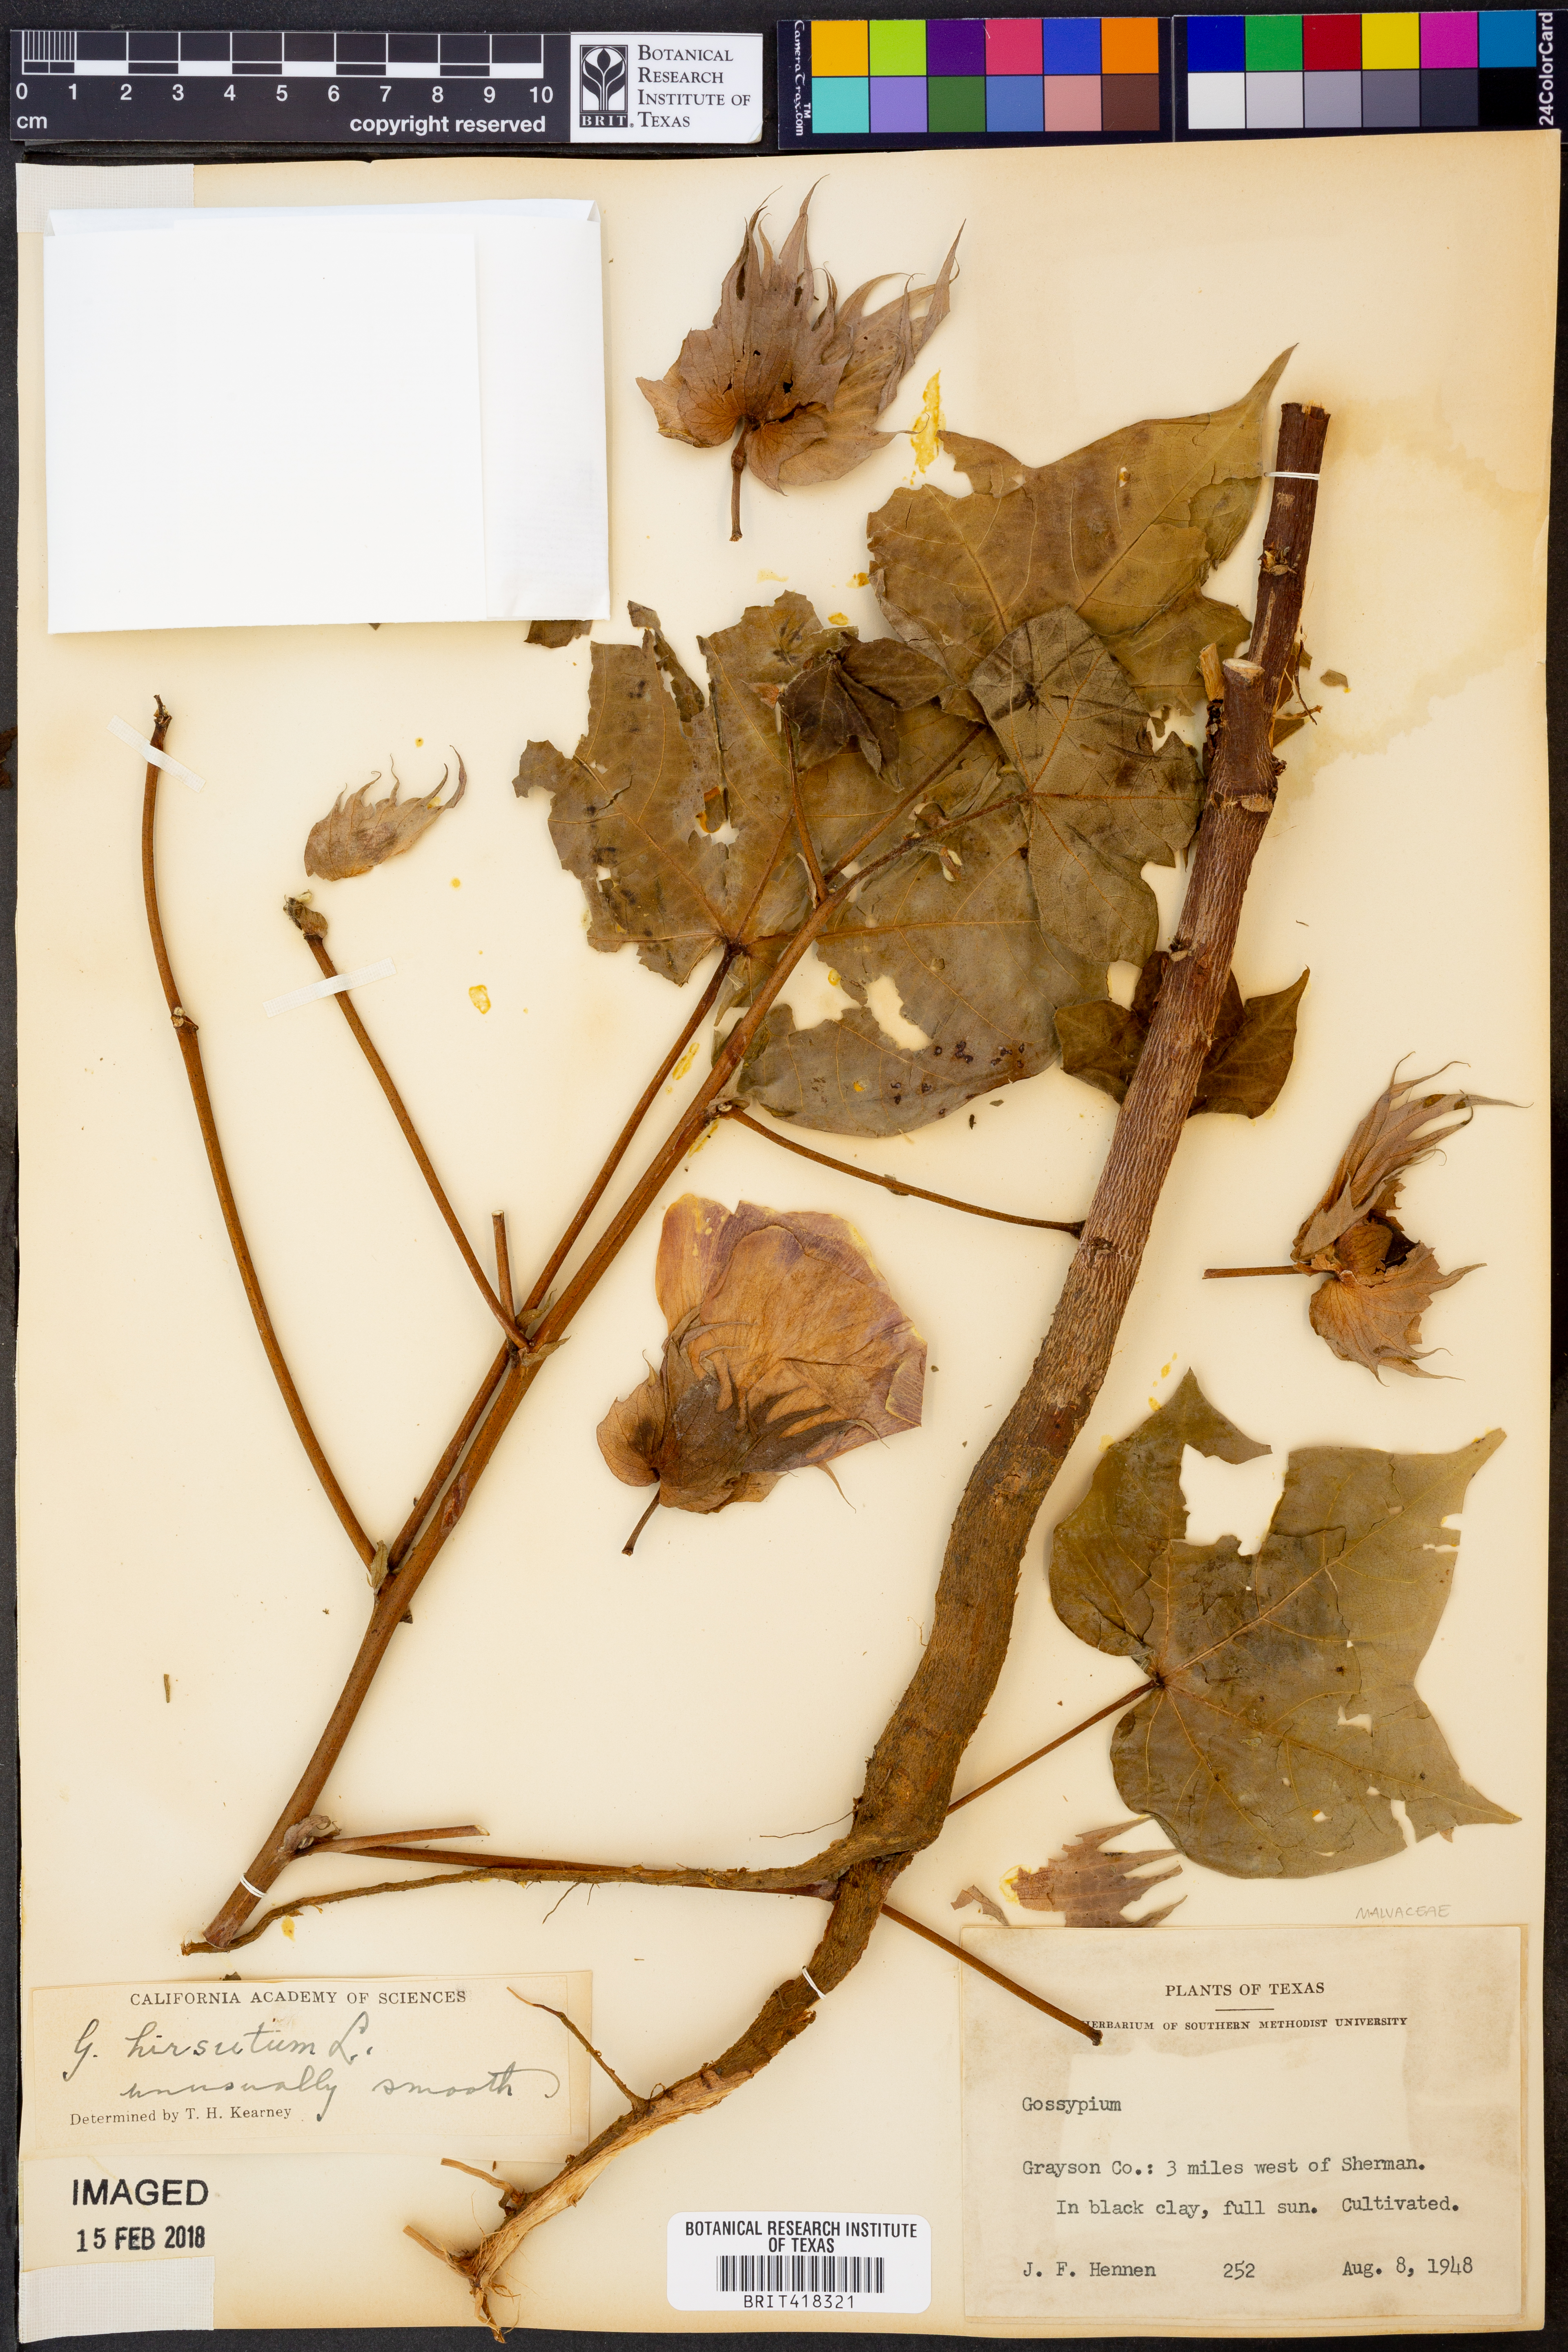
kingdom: Plantae
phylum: Tracheophyta
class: Magnoliopsida
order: Malvales
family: Malvaceae
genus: Gossypium
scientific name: Gossypium hirsutum
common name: Cotton
